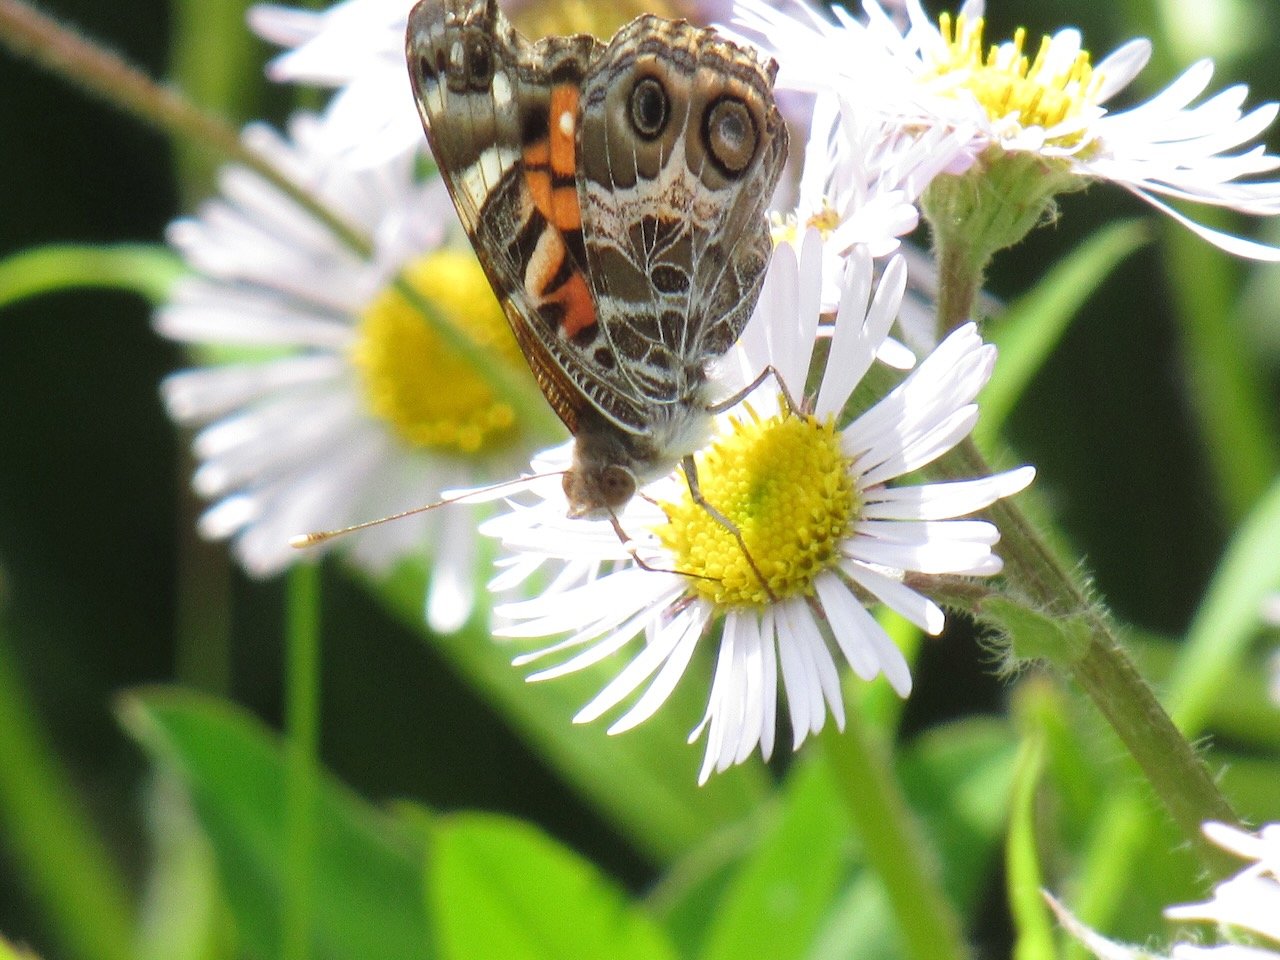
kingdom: Animalia
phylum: Arthropoda
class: Insecta
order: Lepidoptera
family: Nymphalidae
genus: Vanessa
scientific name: Vanessa virginiensis
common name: American Lady
